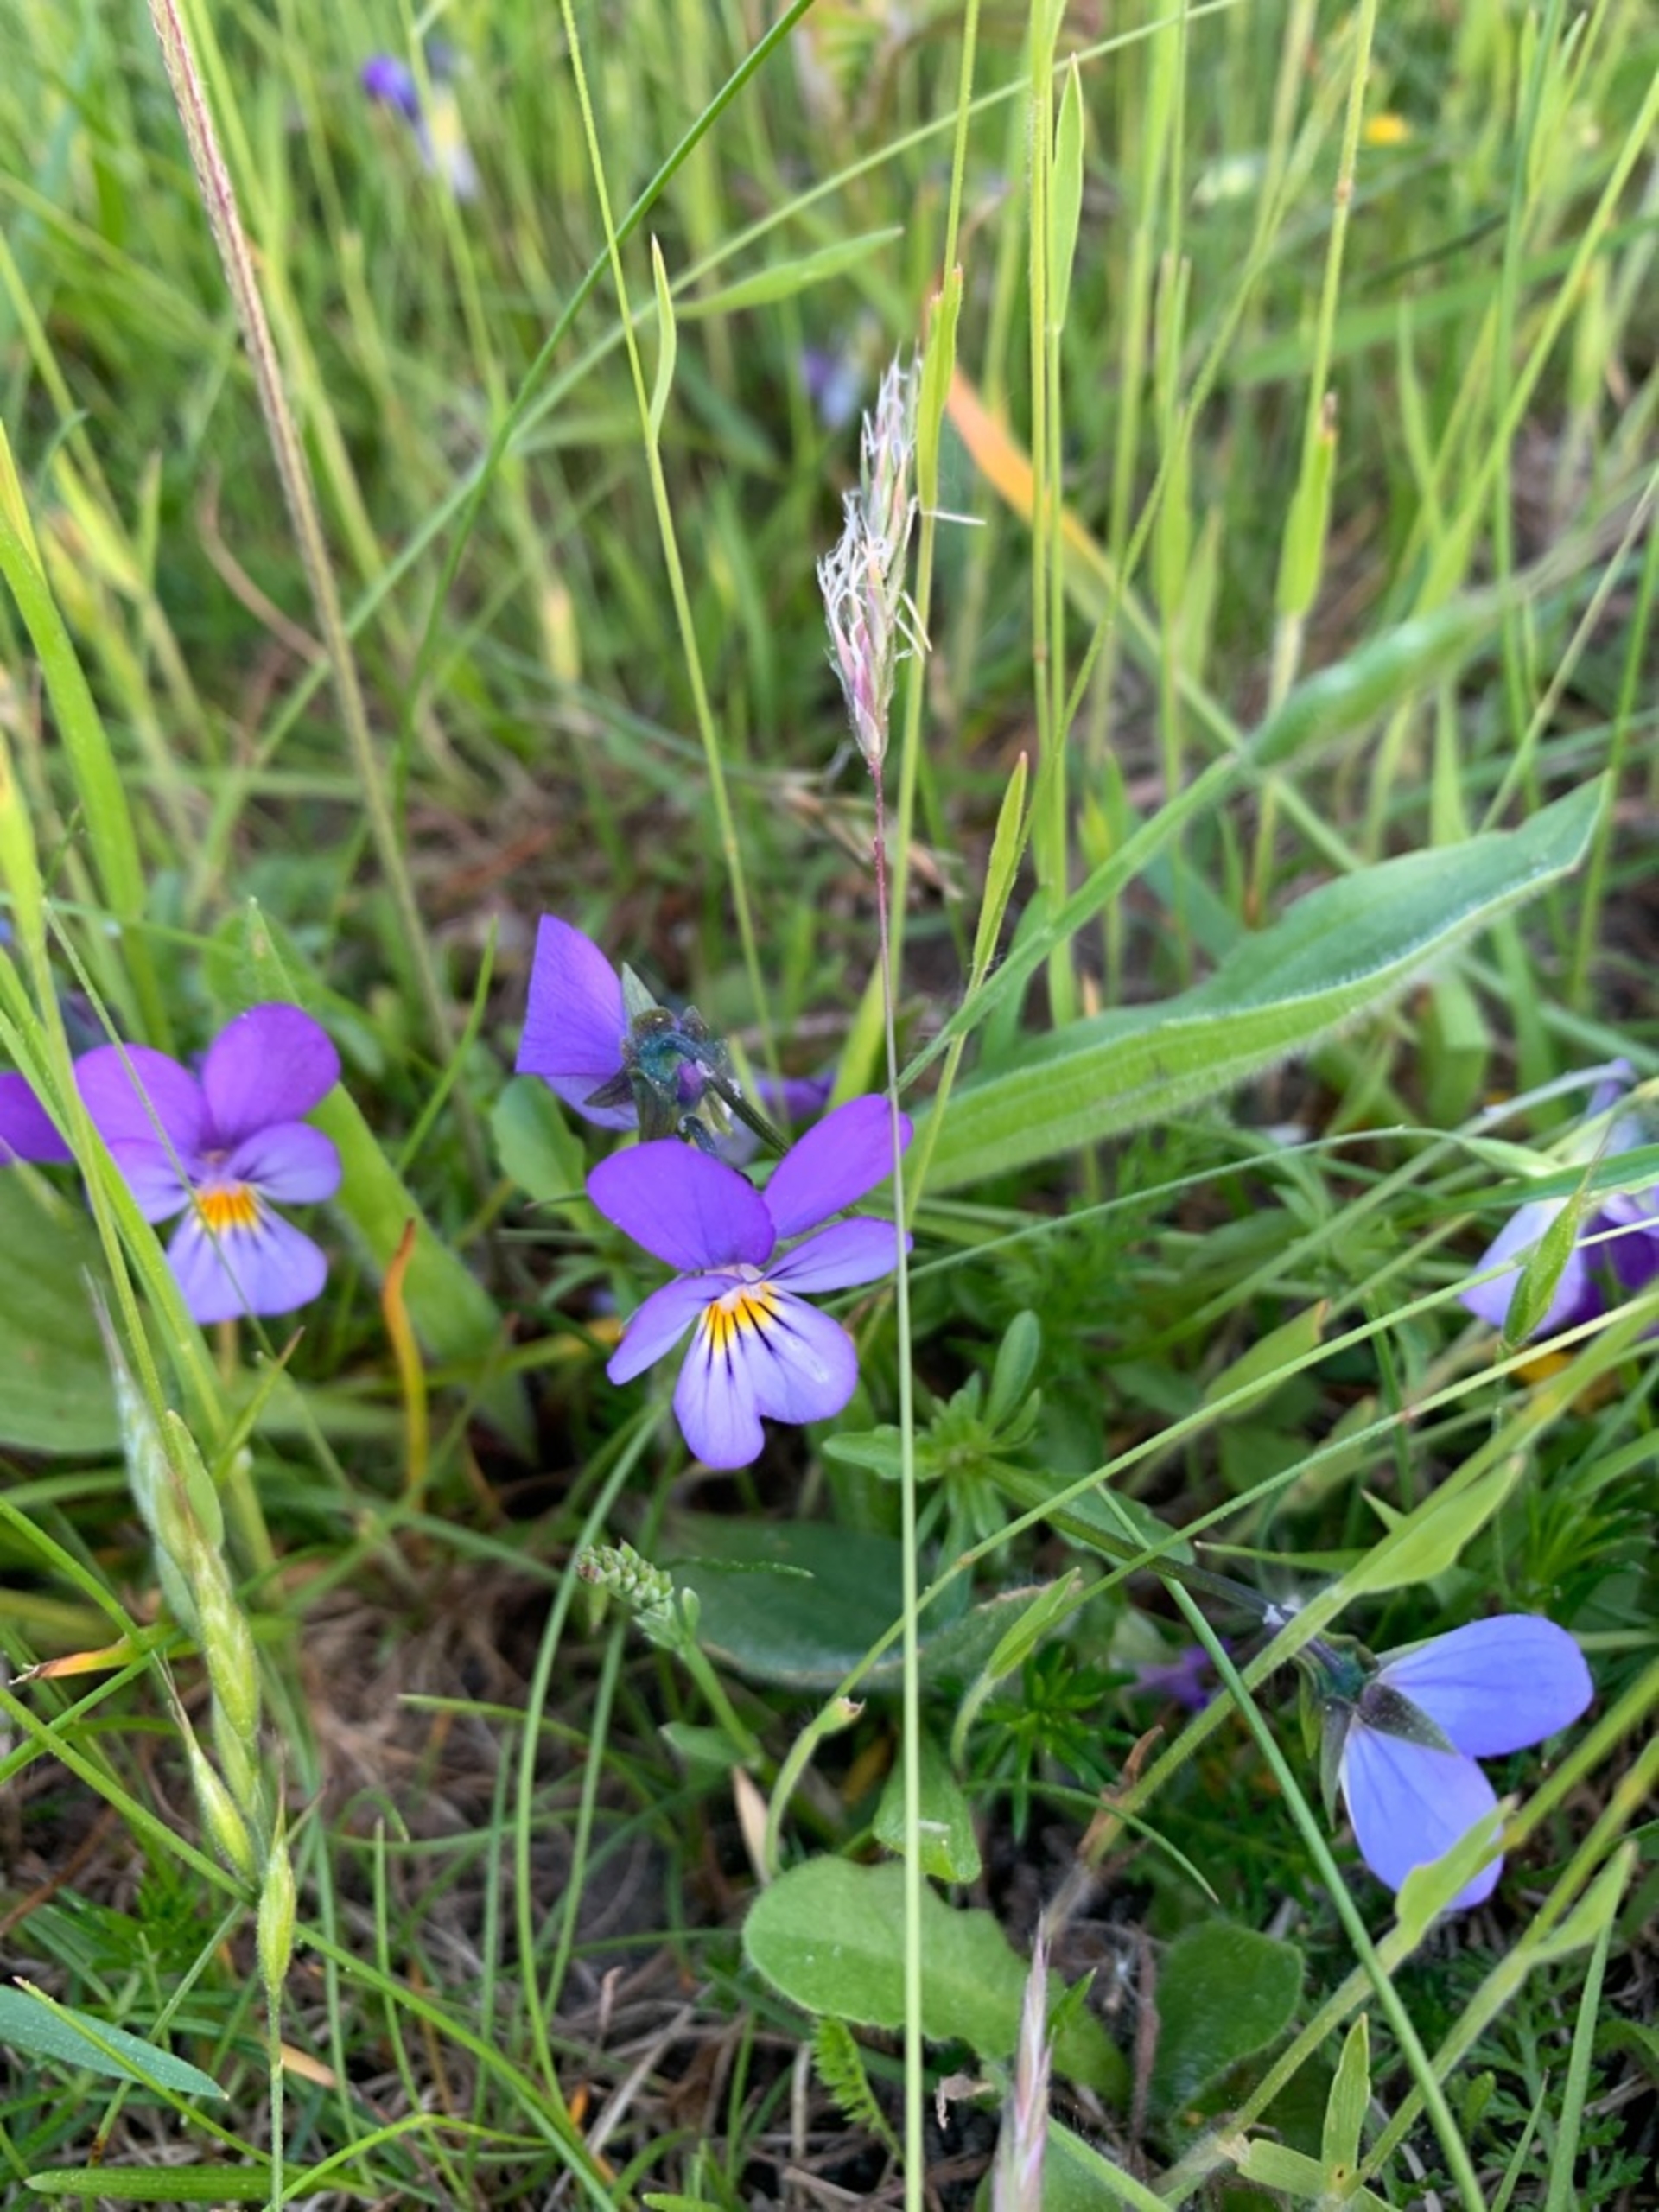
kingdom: Plantae
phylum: Tracheophyta
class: Magnoliopsida
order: Malpighiales
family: Violaceae
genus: Viola
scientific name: Viola tricolor
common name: Stedmoderblomst
